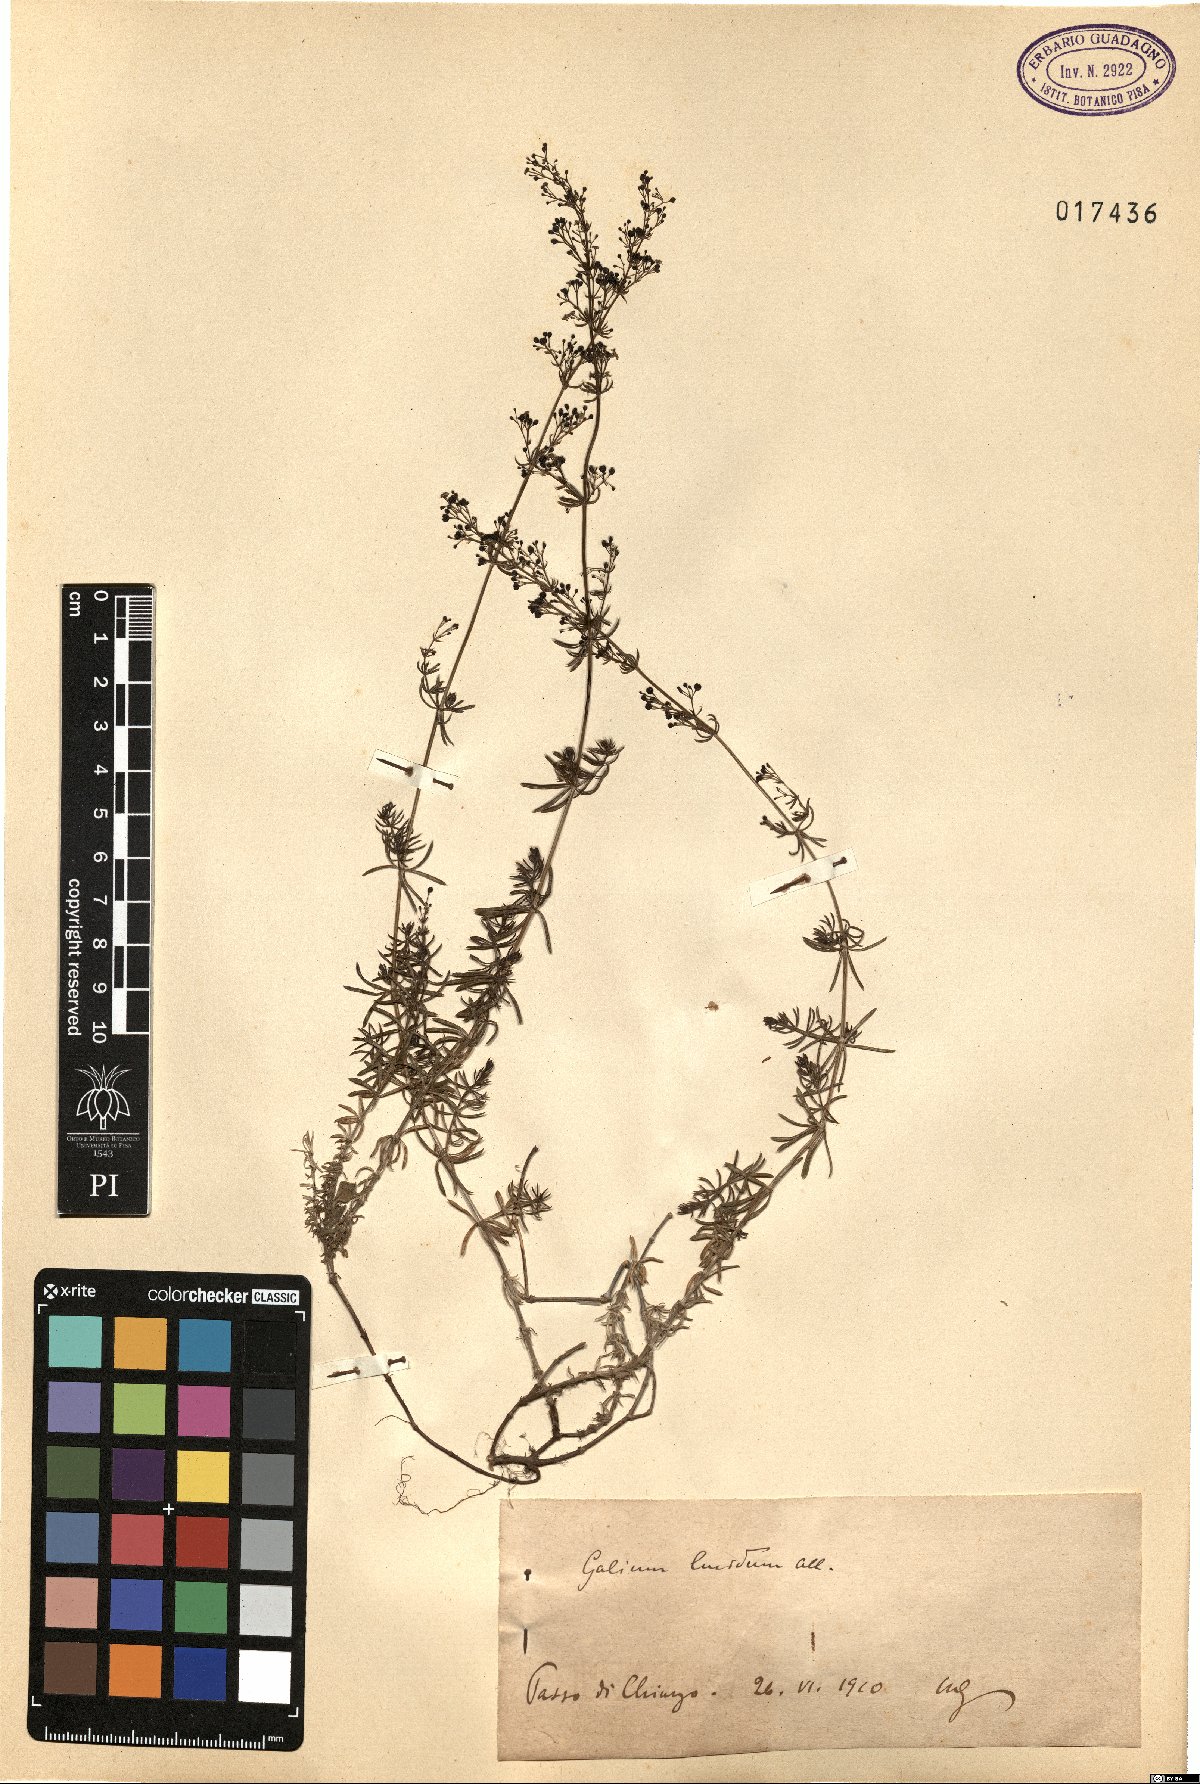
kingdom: Plantae
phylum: Tracheophyta
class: Magnoliopsida
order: Gentianales
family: Rubiaceae
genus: Galium
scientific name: Galium lucidum
